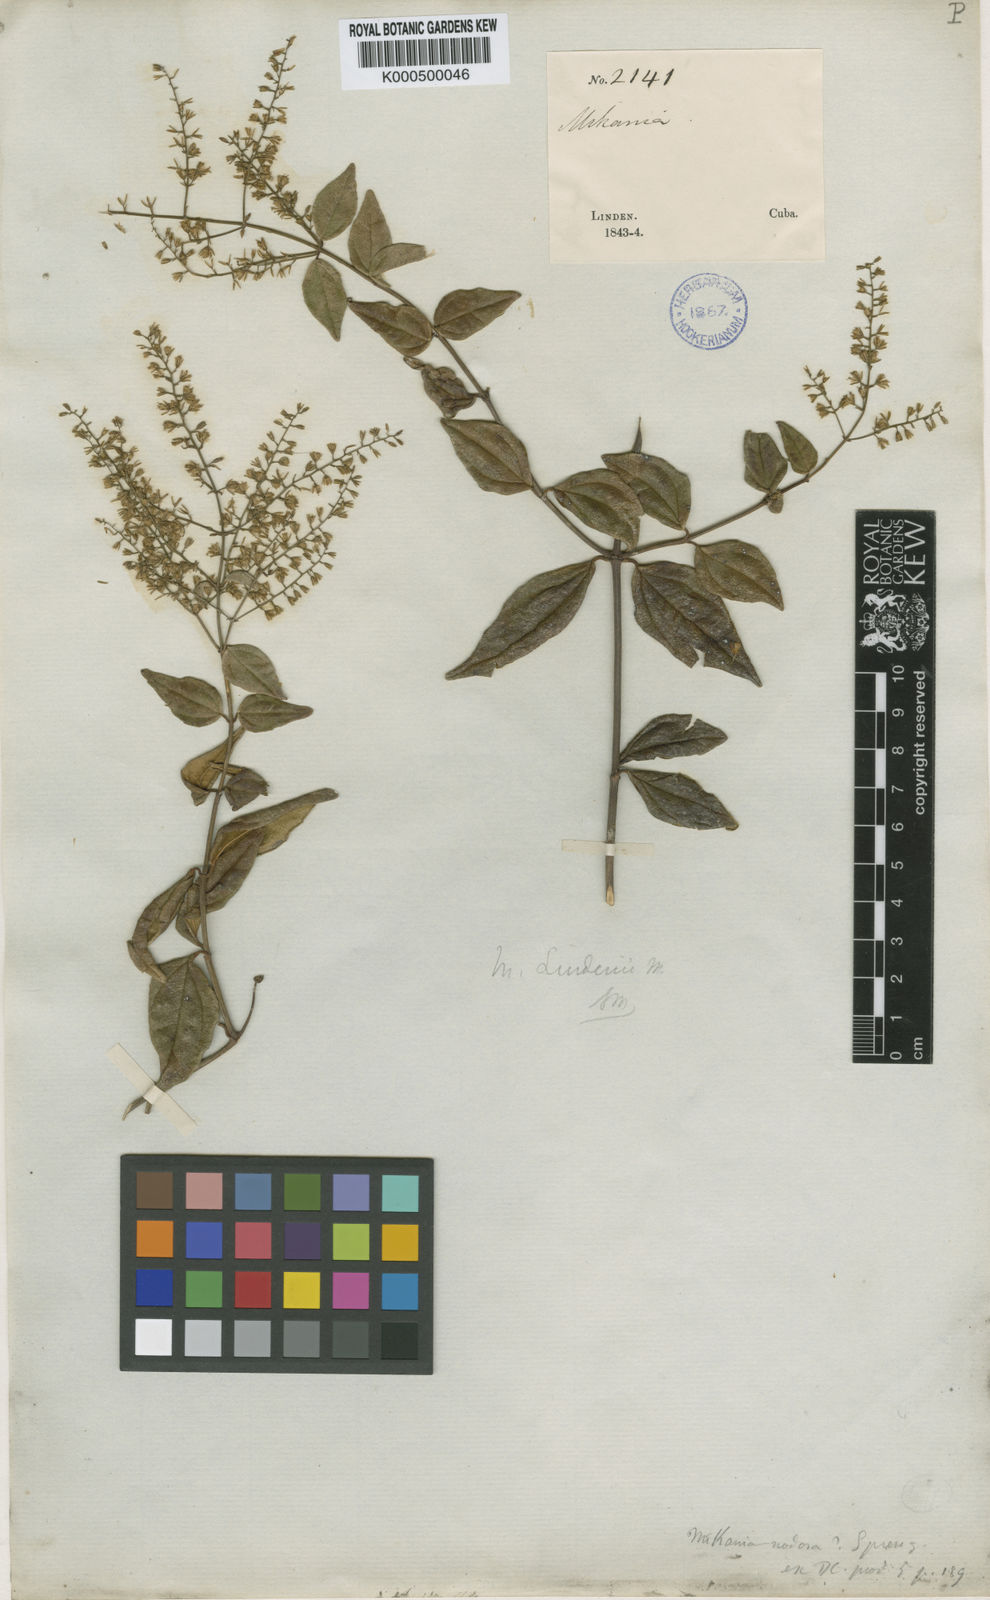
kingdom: Plantae
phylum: Tracheophyta
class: Magnoliopsida
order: Asterales
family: Asteraceae
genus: Mikania
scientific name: Mikania hioramii
